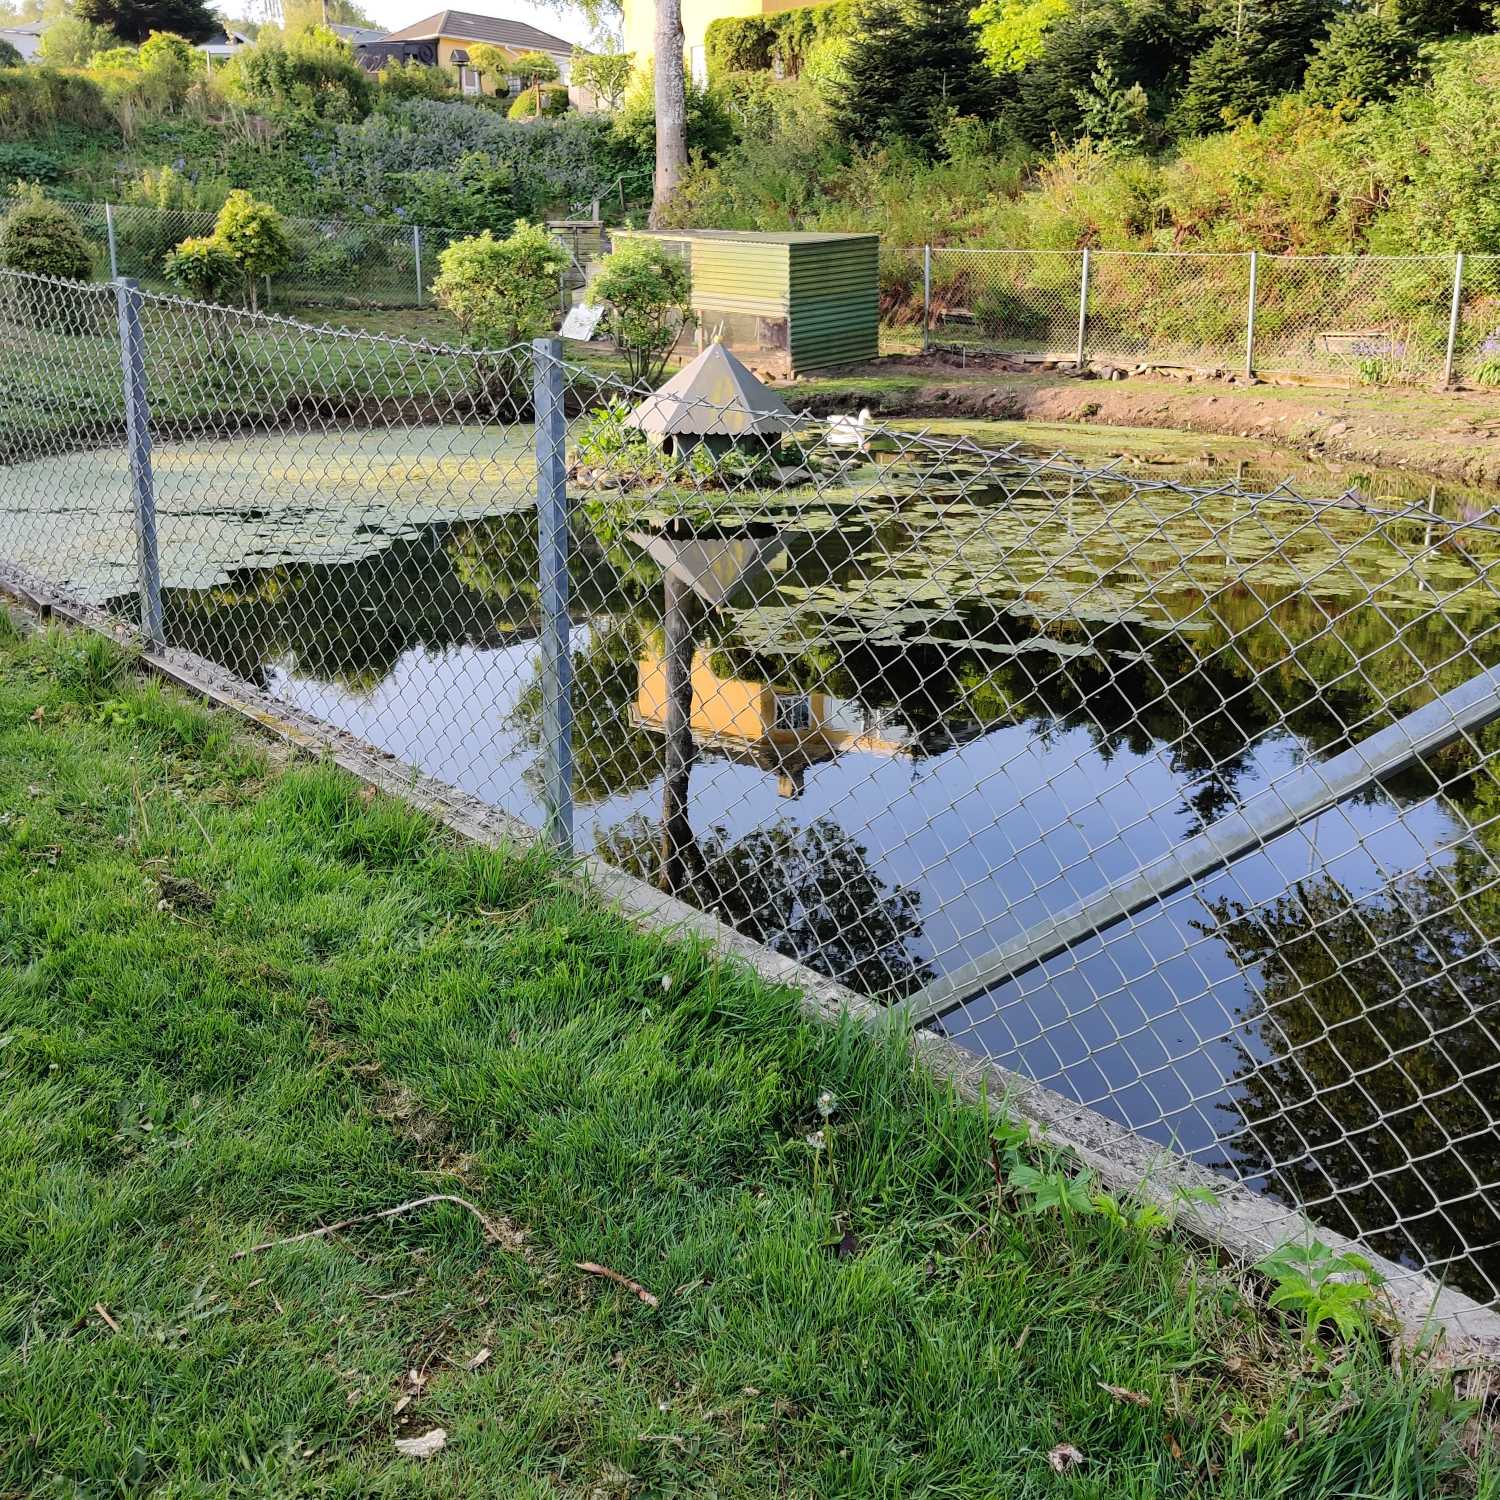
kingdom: Animalia
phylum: Chordata
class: Amphibia
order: Caudata
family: Salamandridae
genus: Lissotriton
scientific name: Lissotriton vulgaris
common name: Lille vandsalamander
